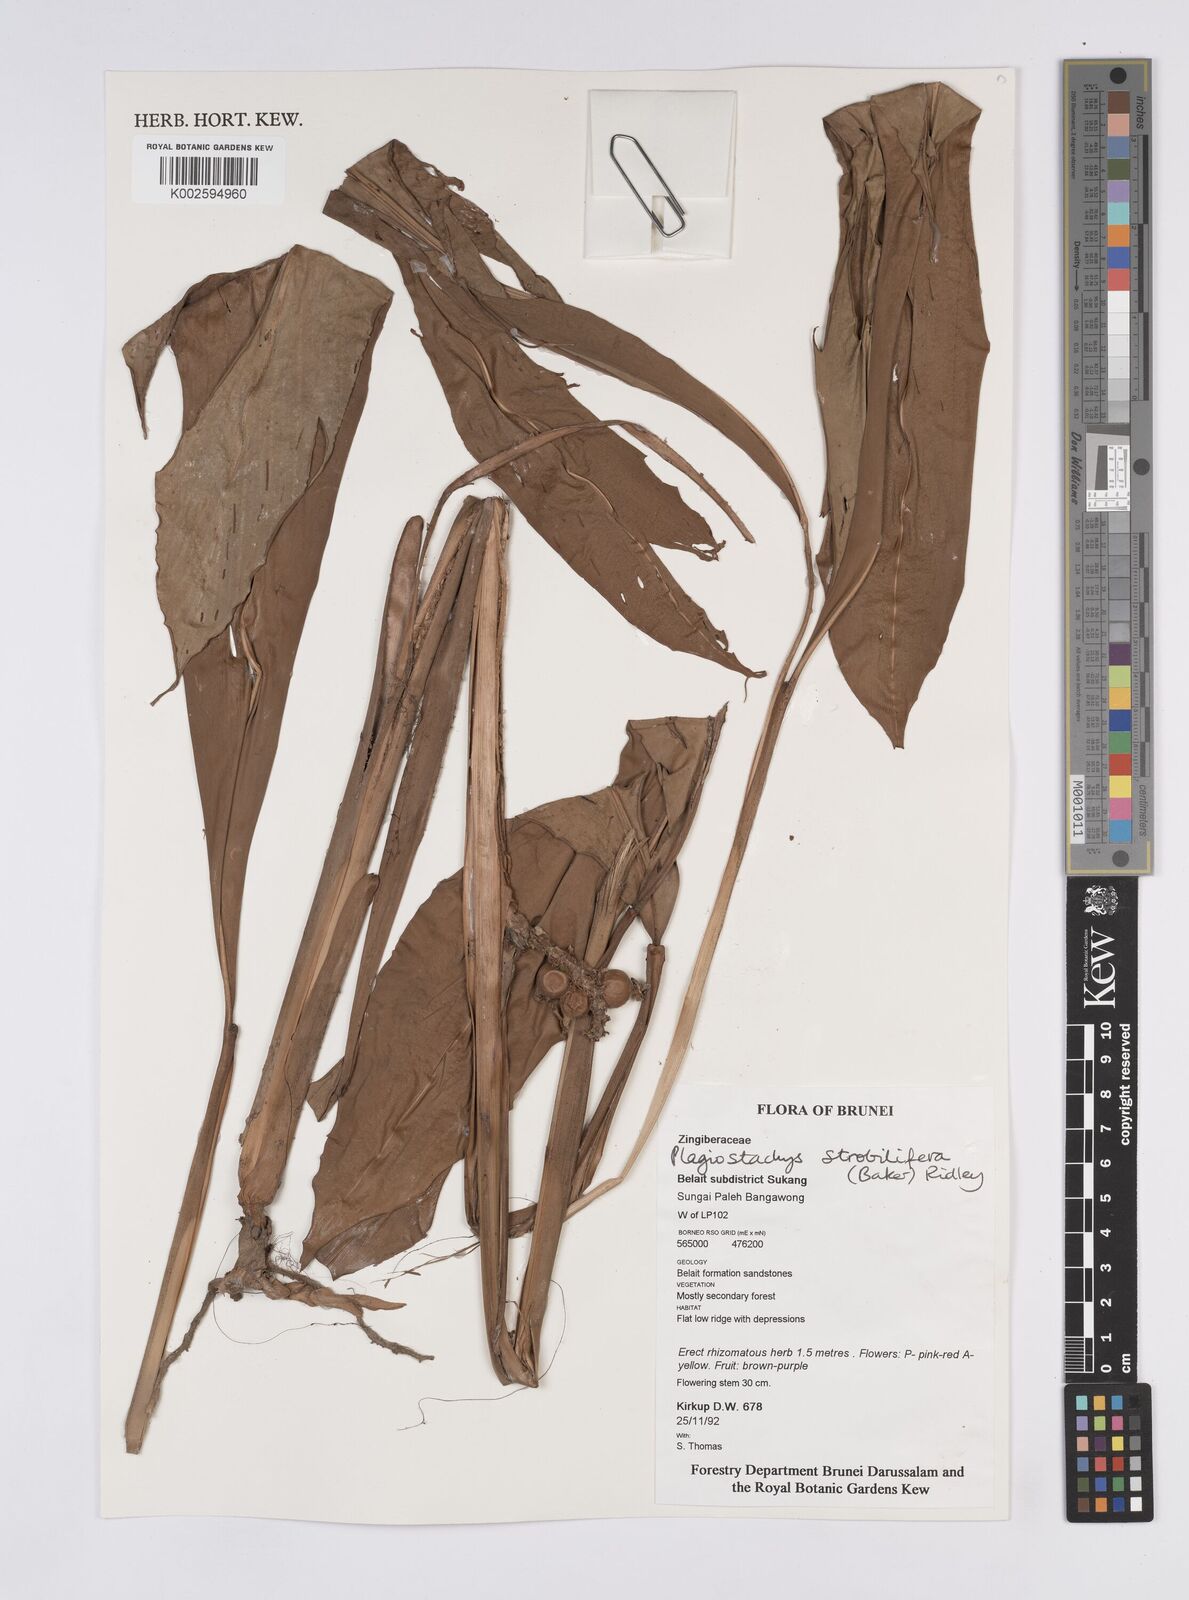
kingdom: Plantae
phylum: Tracheophyta
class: Liliopsida
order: Zingiberales
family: Zingiberaceae
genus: Plagiostachys
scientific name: Plagiostachys strobilifera
